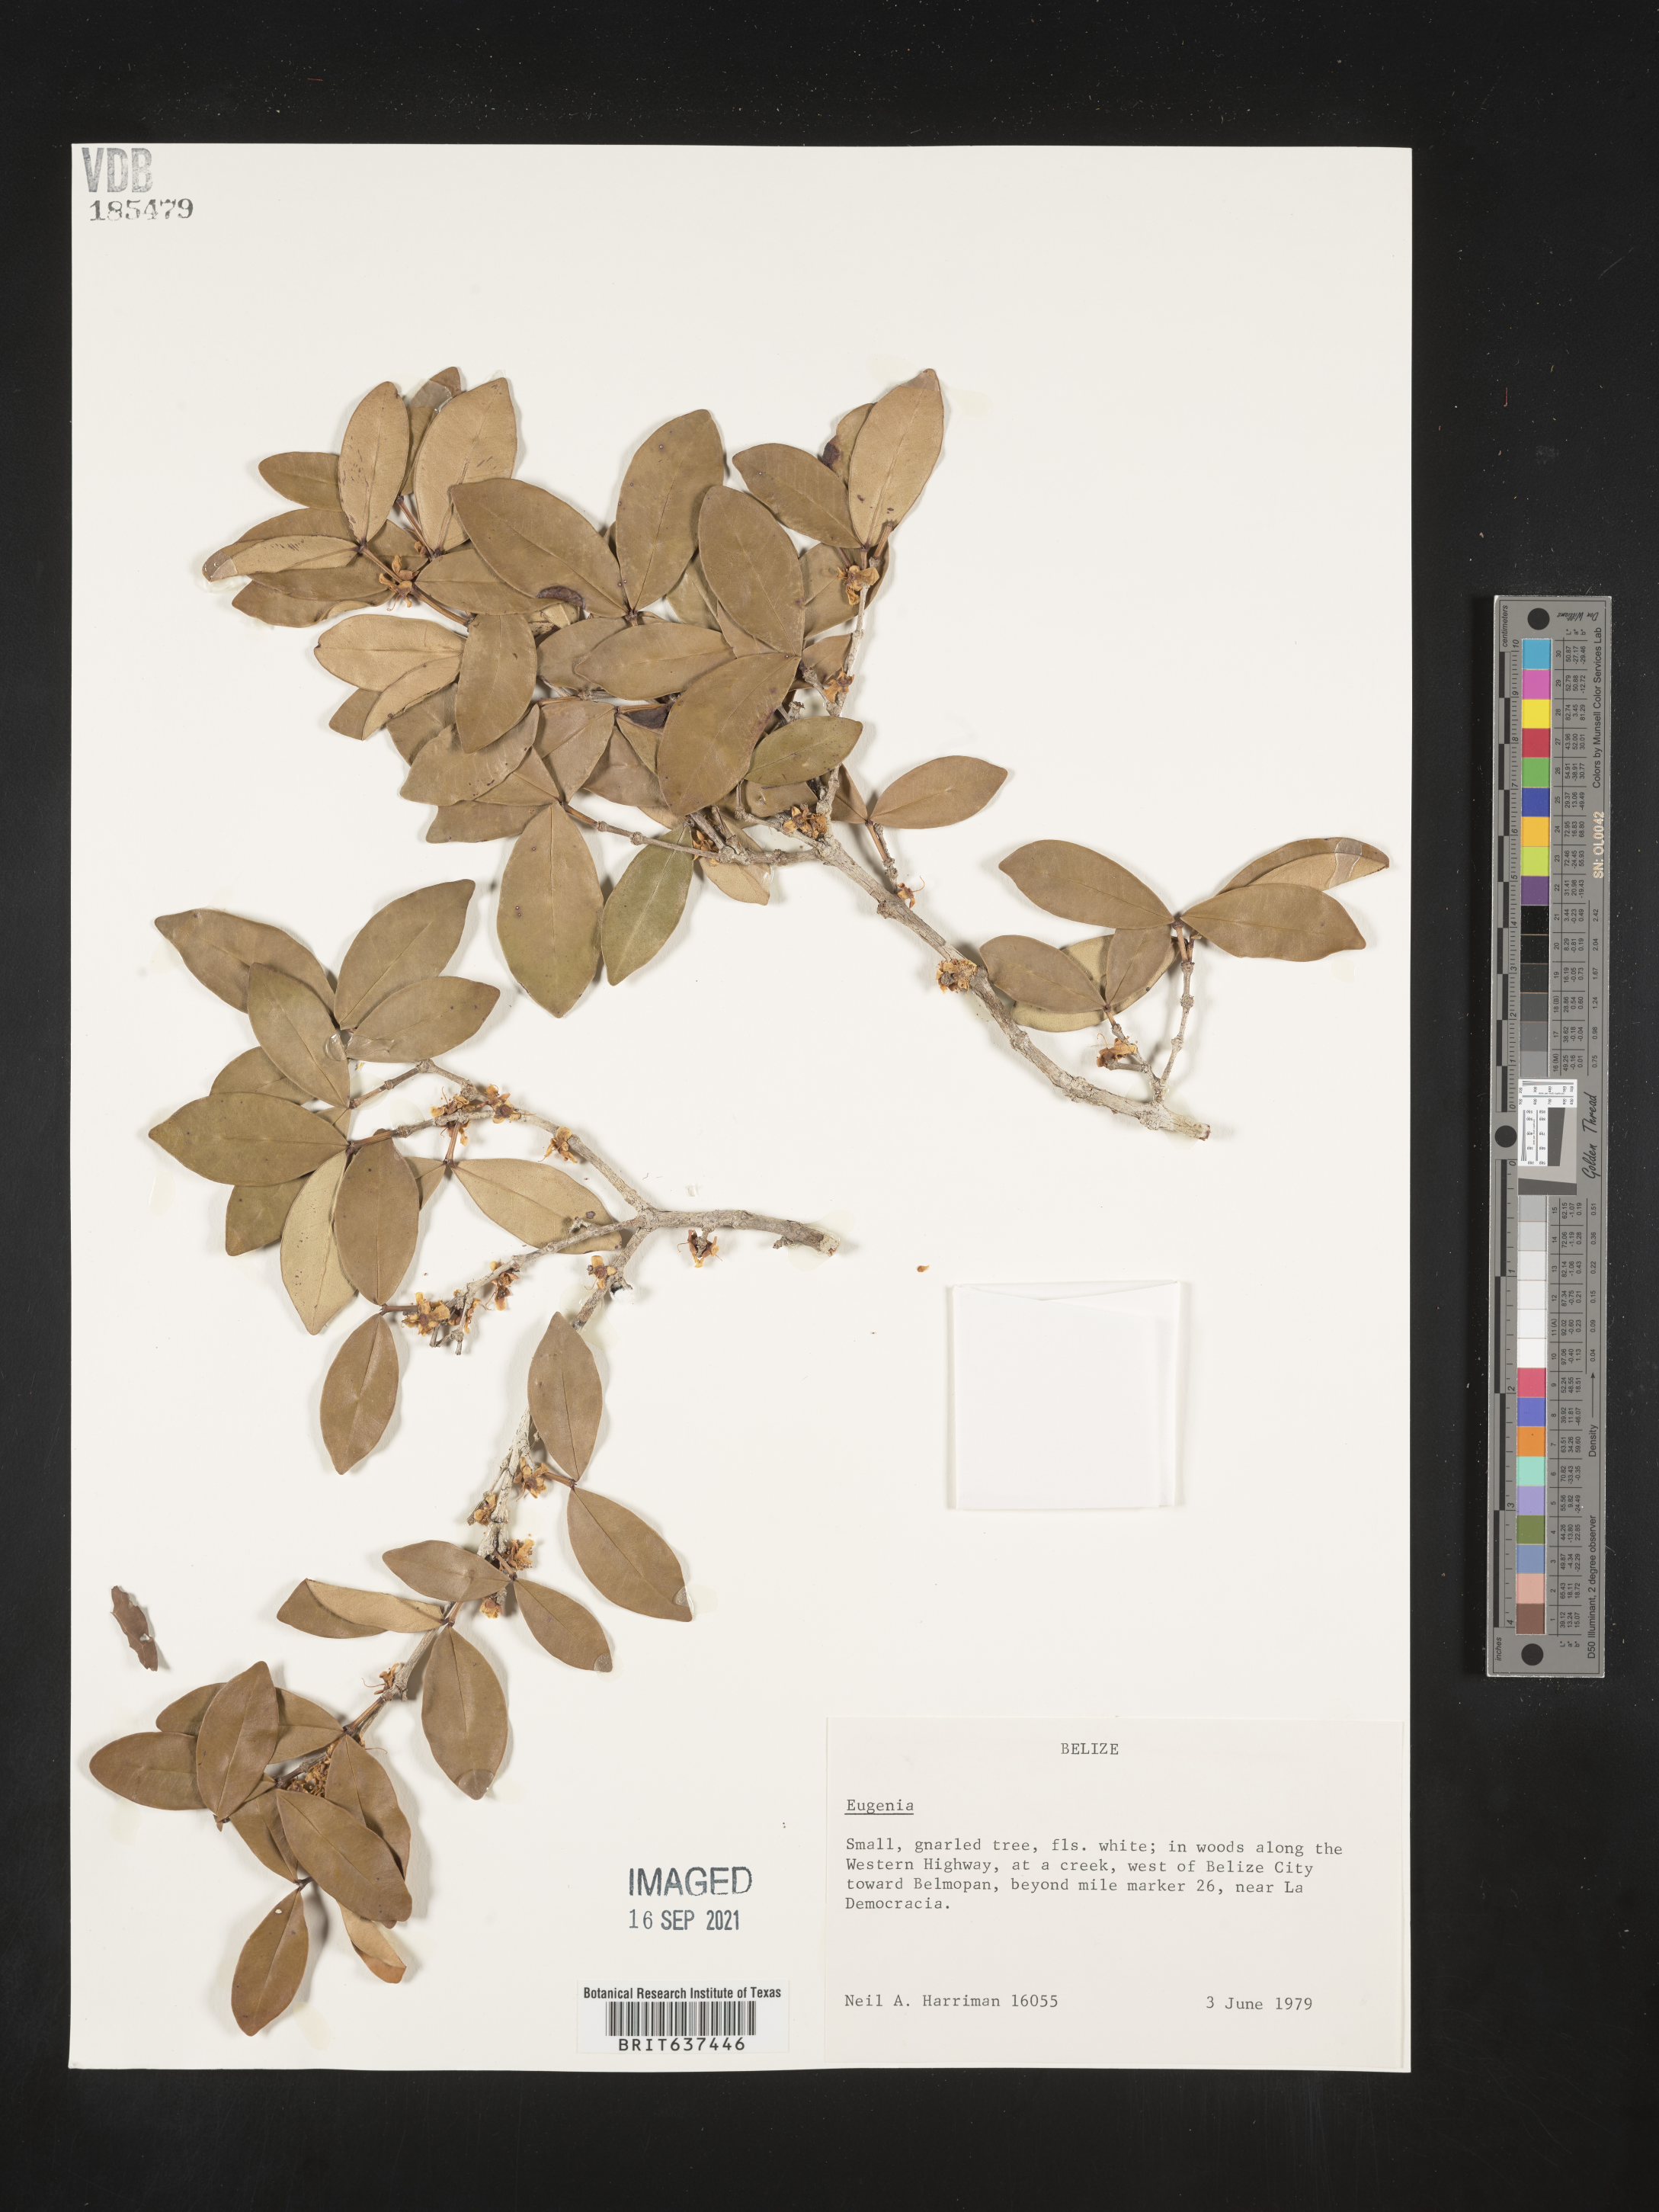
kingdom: Plantae
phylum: Tracheophyta
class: Magnoliopsida
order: Myrtales
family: Myrtaceae
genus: Eugenia
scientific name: Eugenia
